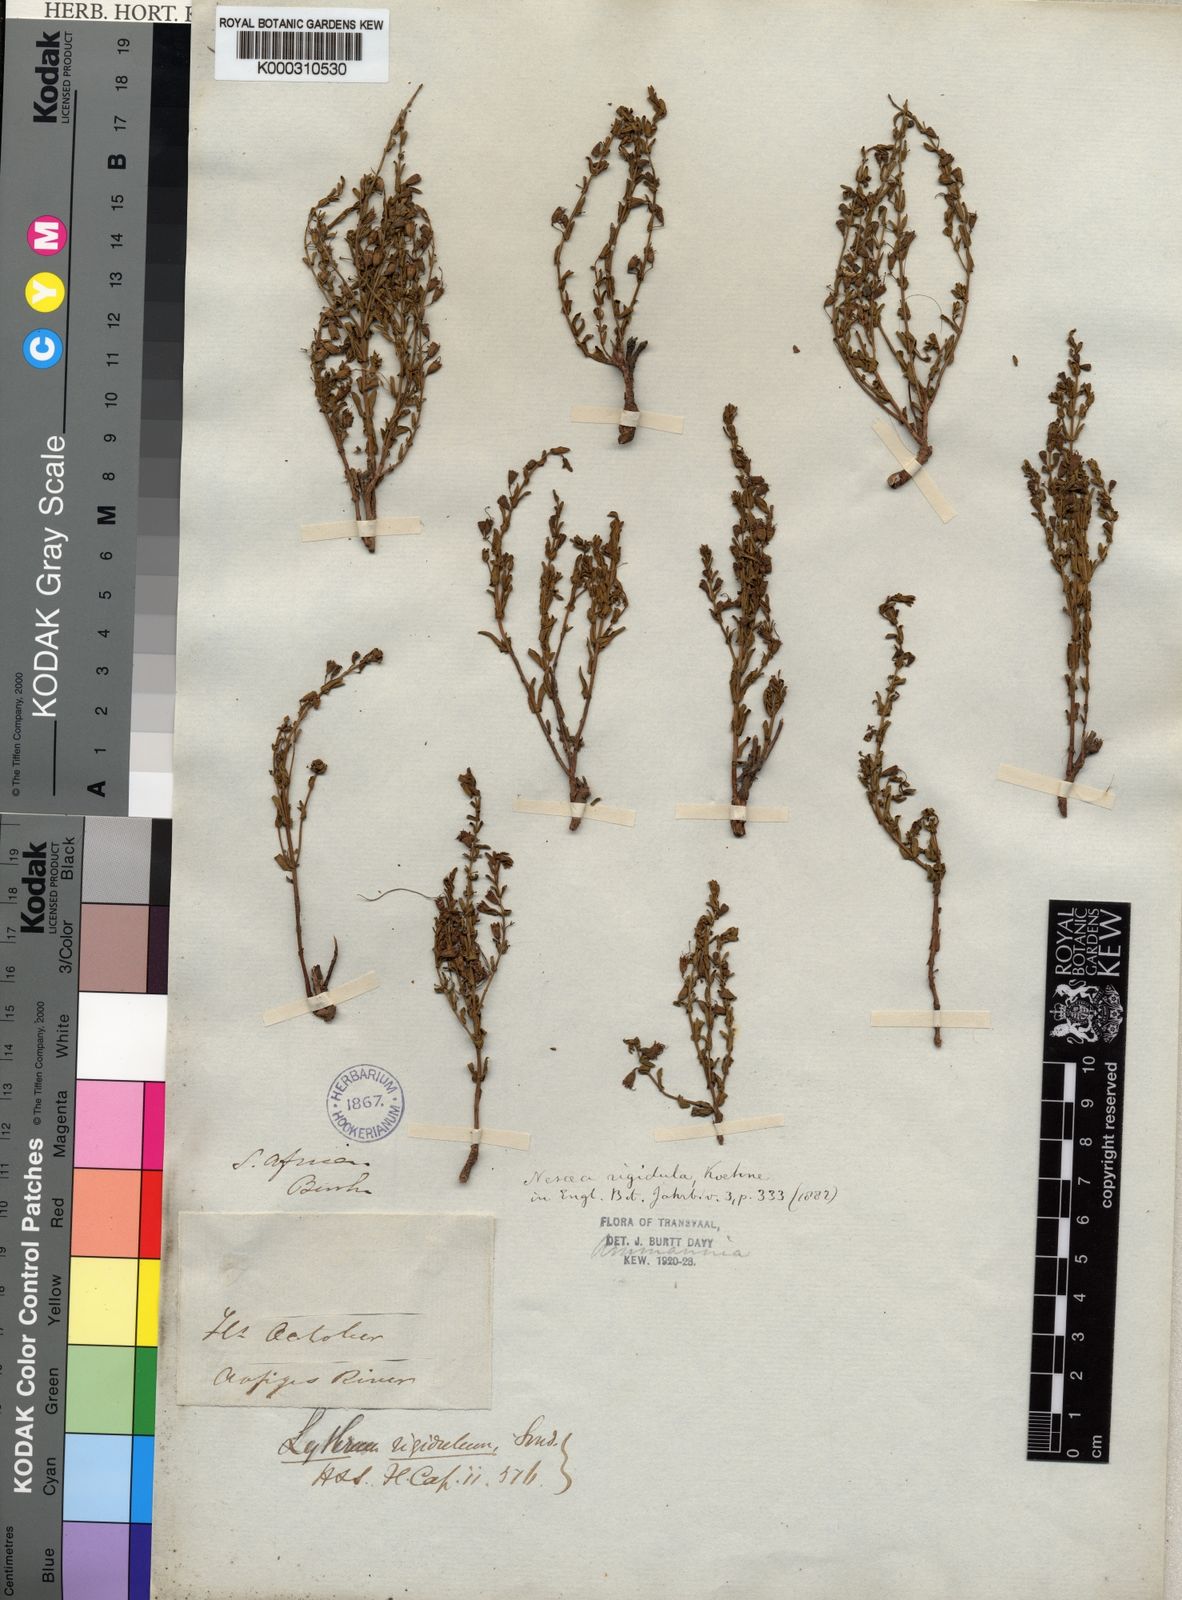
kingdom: Plantae
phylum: Tracheophyta
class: Magnoliopsida
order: Myrtales
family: Lythraceae
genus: Ammannia
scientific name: Ammannia rigidula
